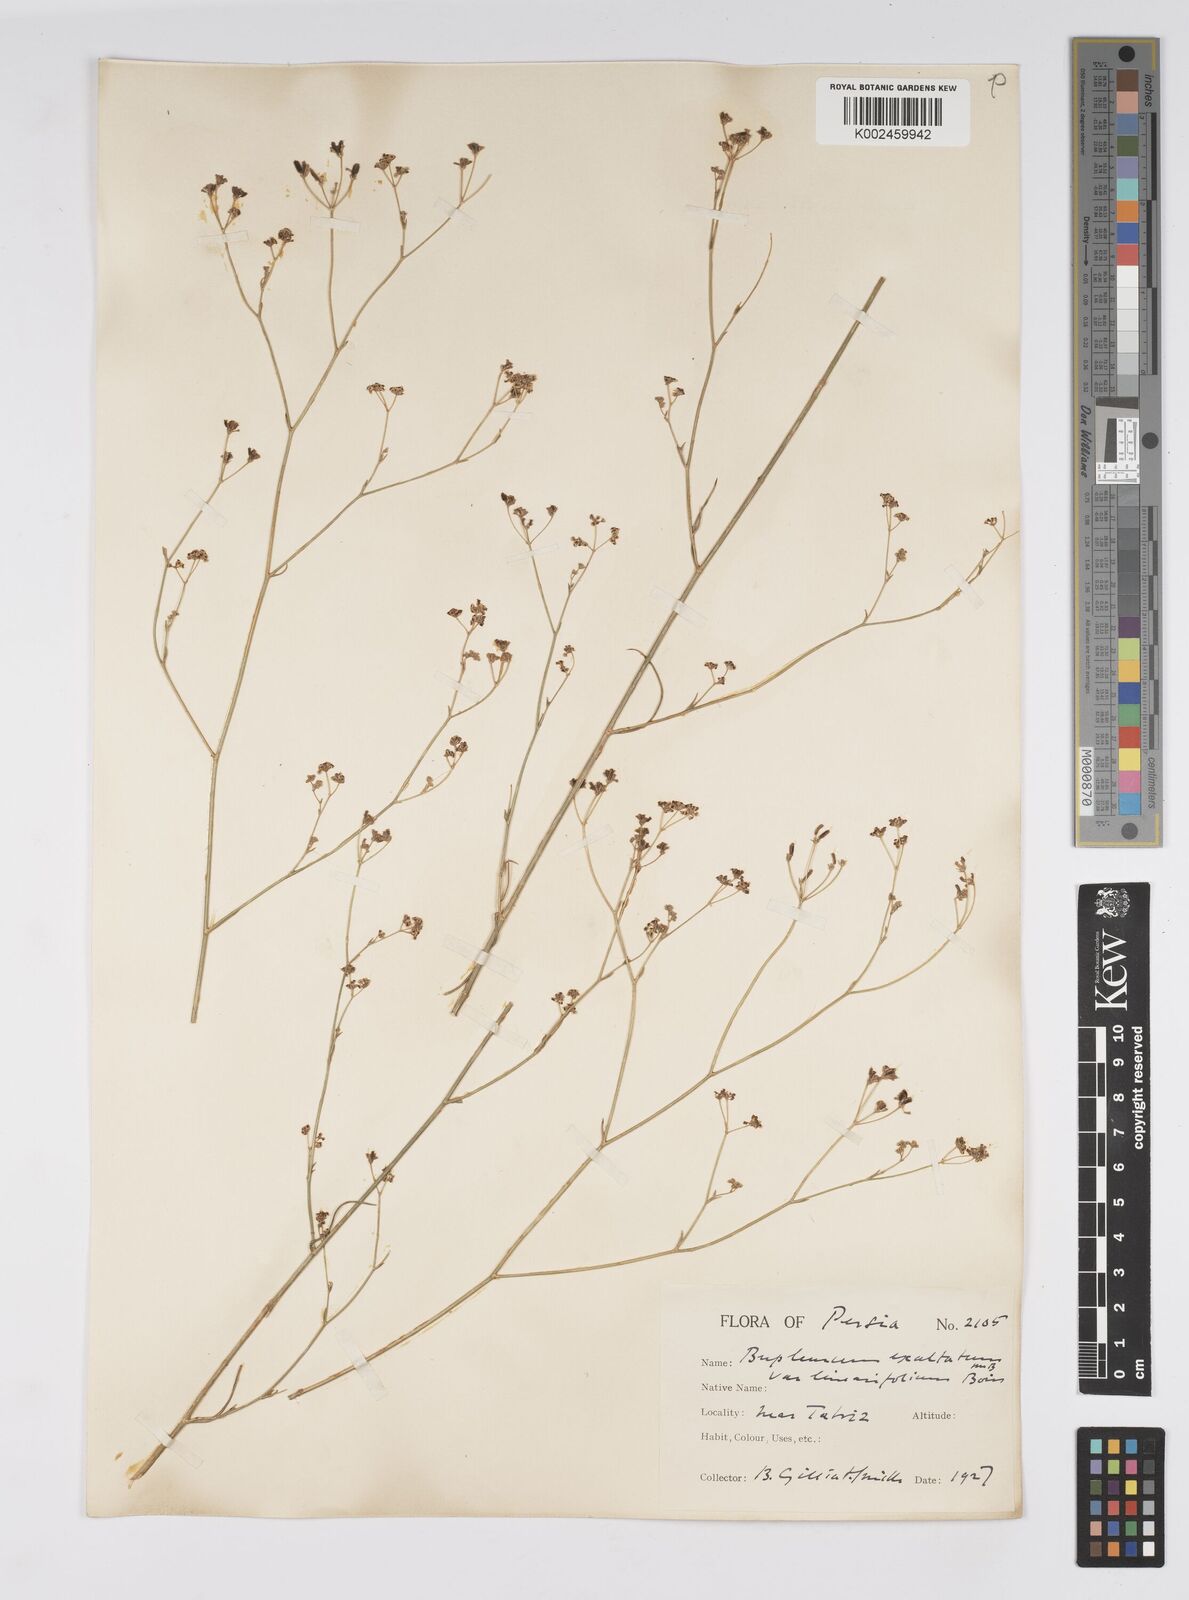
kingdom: Plantae
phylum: Tracheophyta
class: Magnoliopsida
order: Apiales
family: Apiaceae
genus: Bupleurum
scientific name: Bupleurum falcatum
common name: Sickle-leaved hare's-ear
